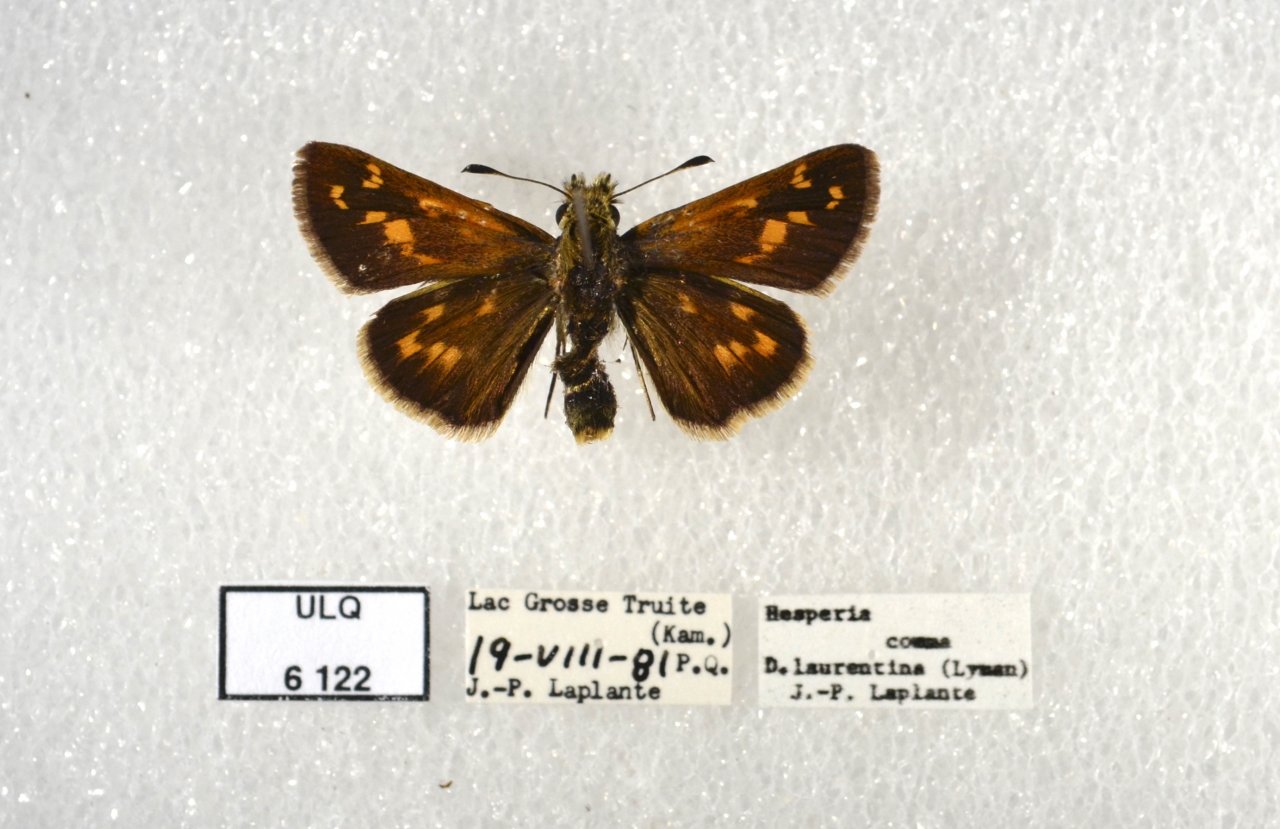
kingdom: Animalia
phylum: Arthropoda
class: Insecta
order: Lepidoptera
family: Hesperiidae
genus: Hesperia
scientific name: Hesperia comma
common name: Common Branded Skipper
